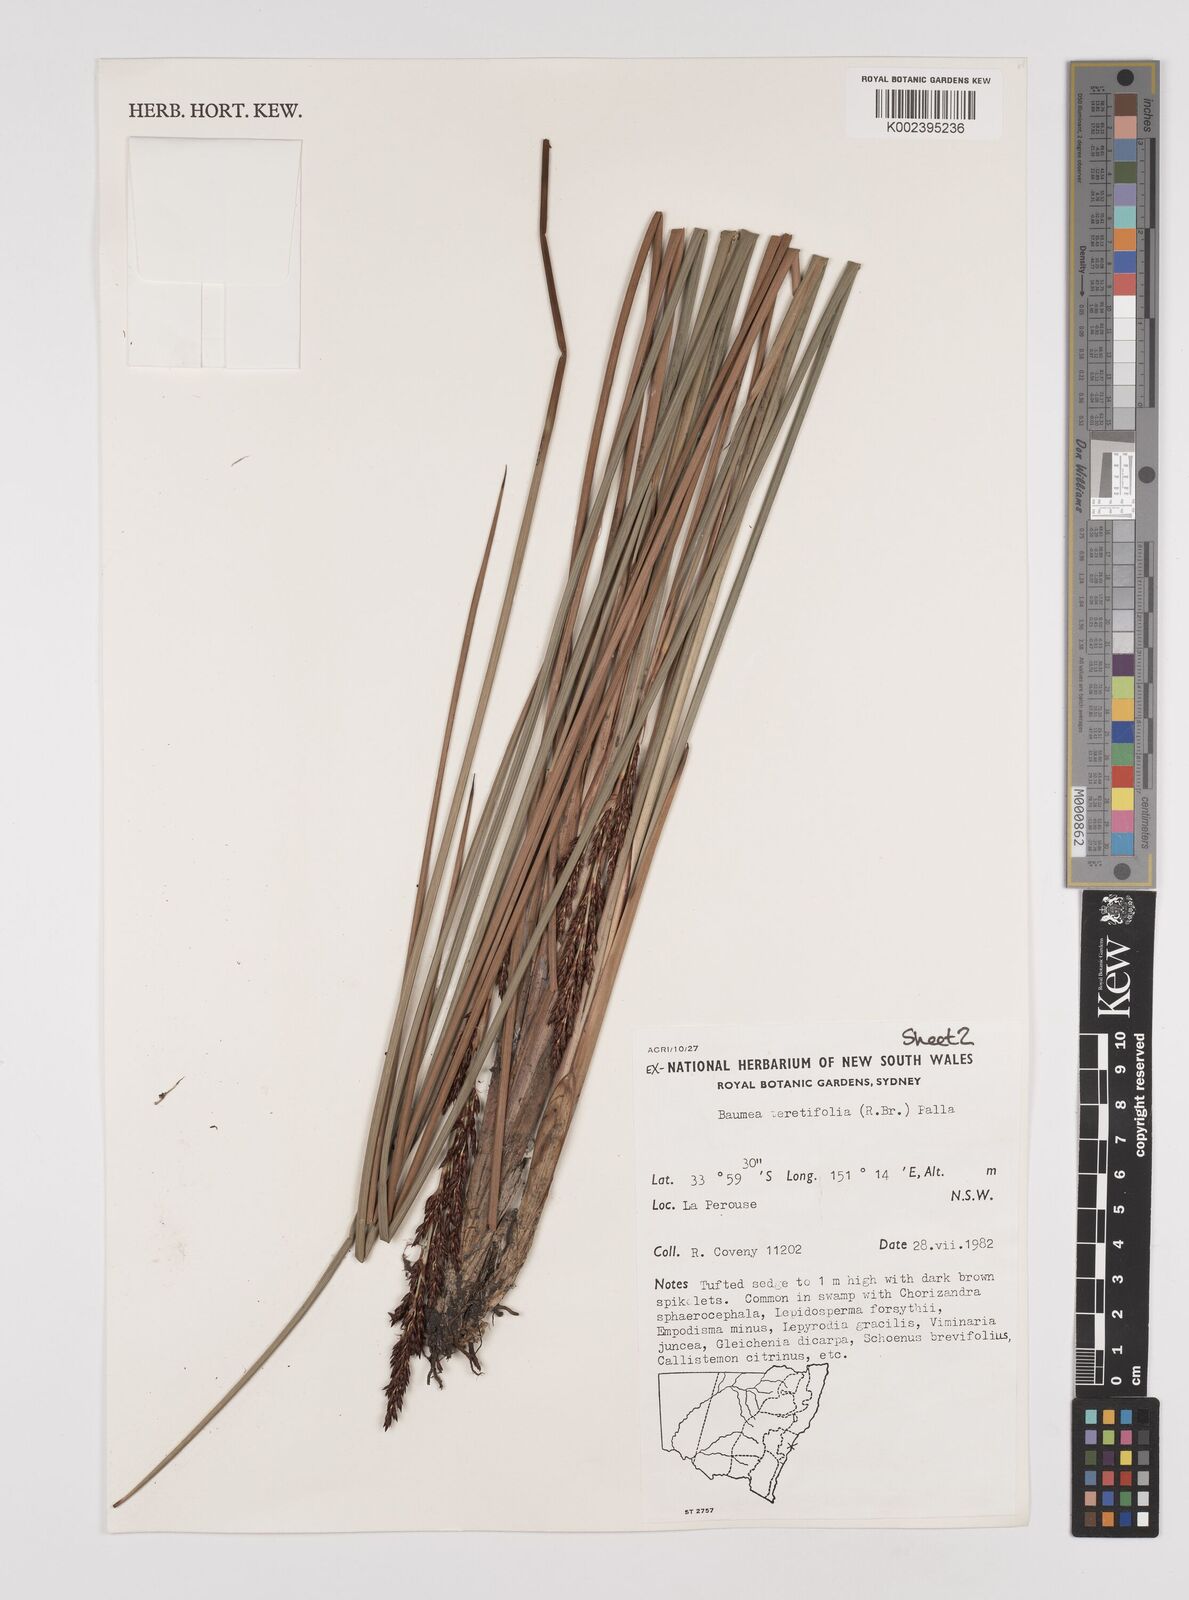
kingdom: Plantae
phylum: Tracheophyta
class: Liliopsida
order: Poales
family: Cyperaceae
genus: Machaerina
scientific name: Machaerina teretifolia
